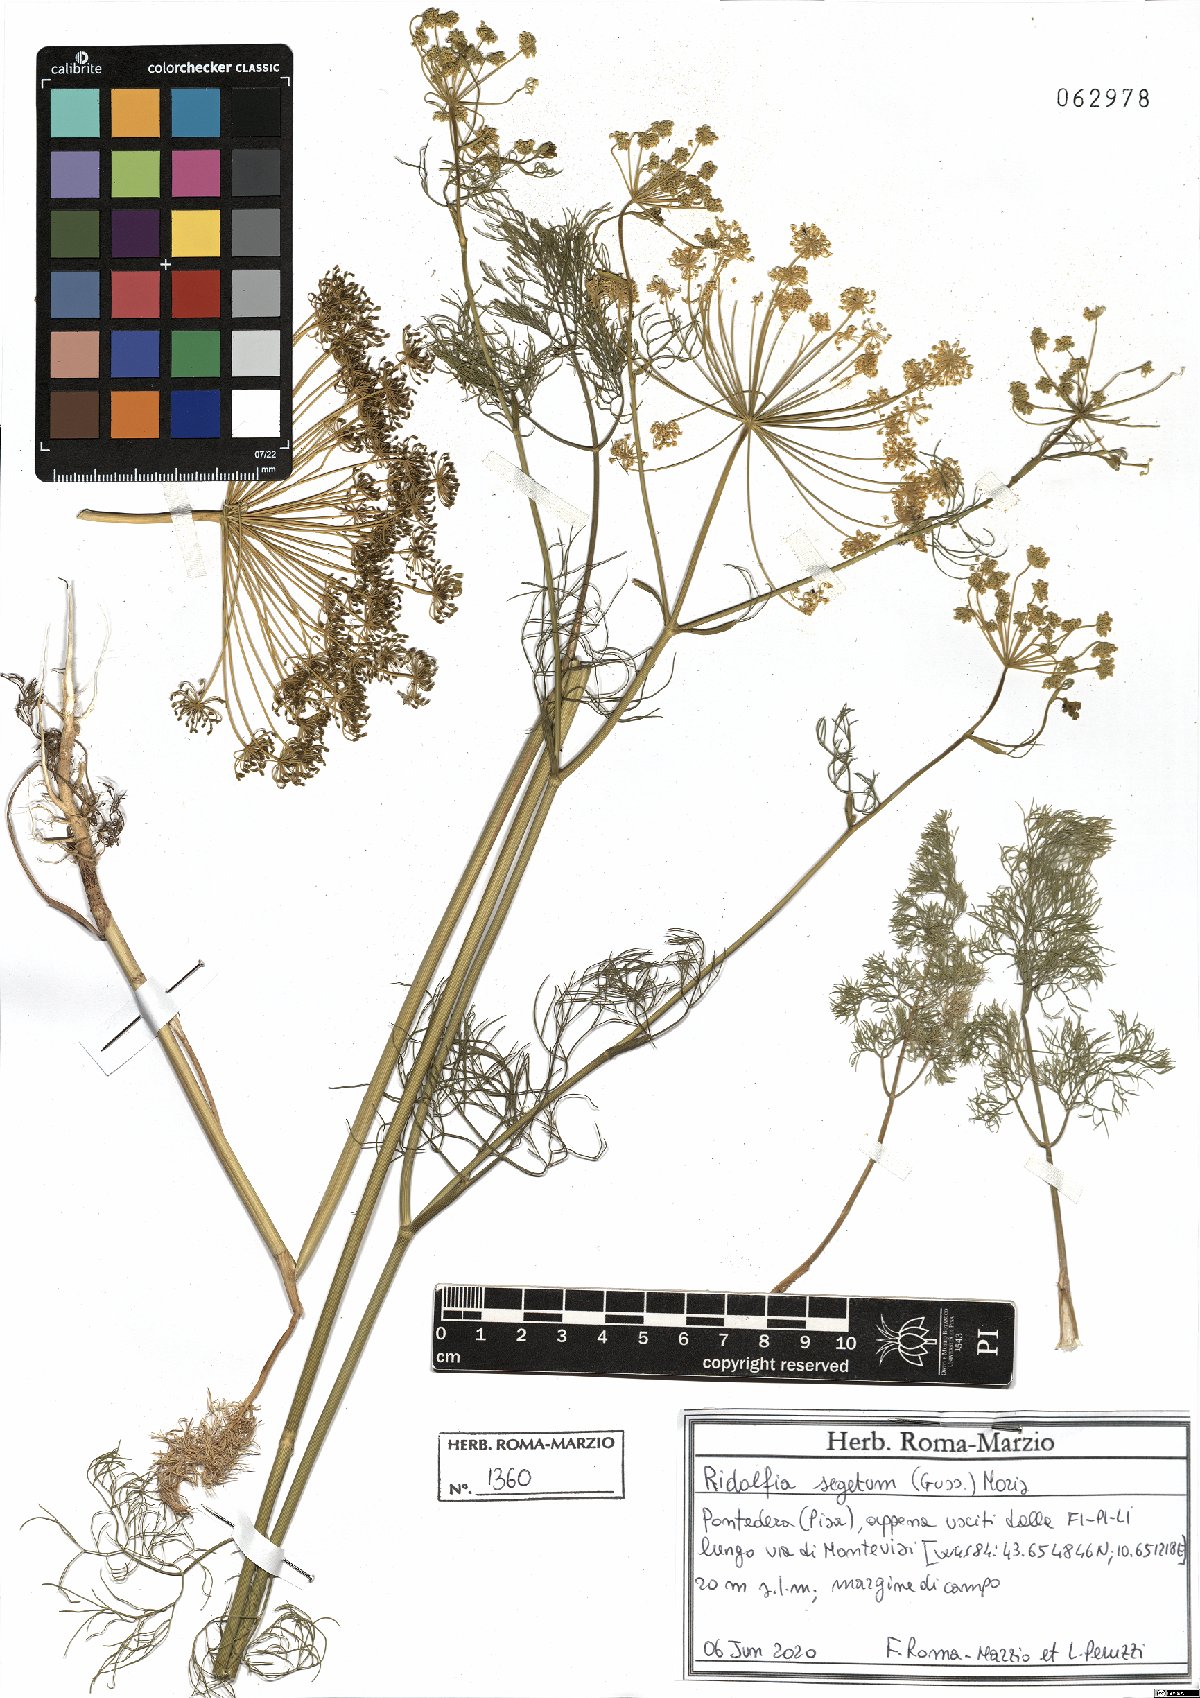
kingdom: Plantae
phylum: Tracheophyta
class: Magnoliopsida
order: Apiales
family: Apiaceae
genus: Anethum
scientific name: Anethum ridolfia
